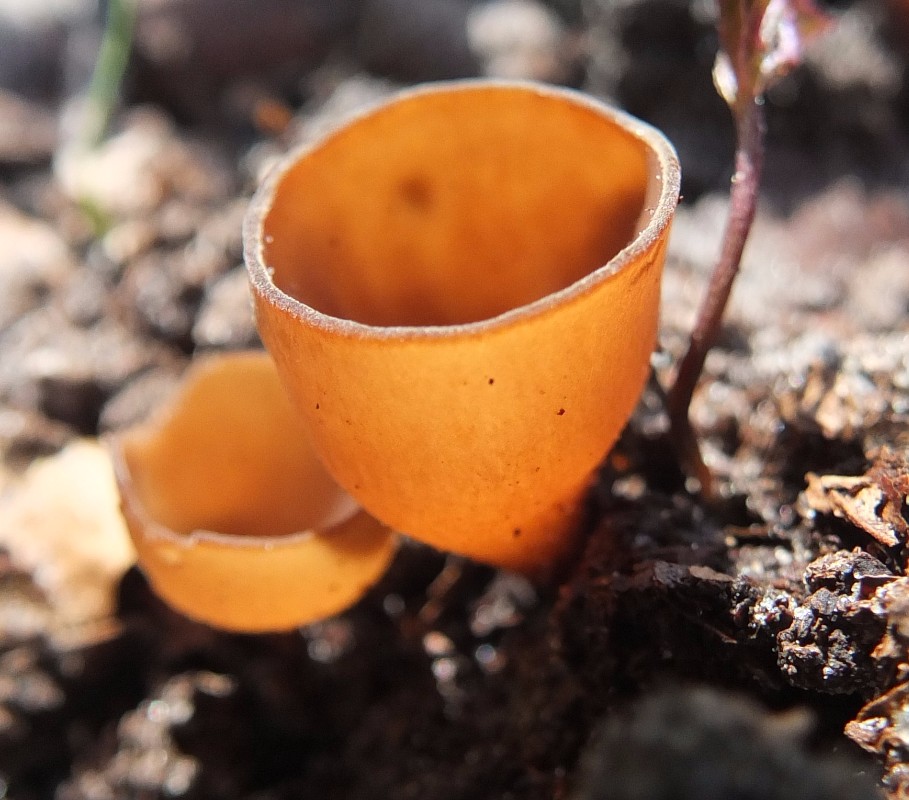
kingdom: Fungi
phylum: Ascomycota
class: Leotiomycetes
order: Helotiales
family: Sclerotiniaceae
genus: Dumontinia
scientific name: Dumontinia tuberosa
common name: anemone-knoldskive
